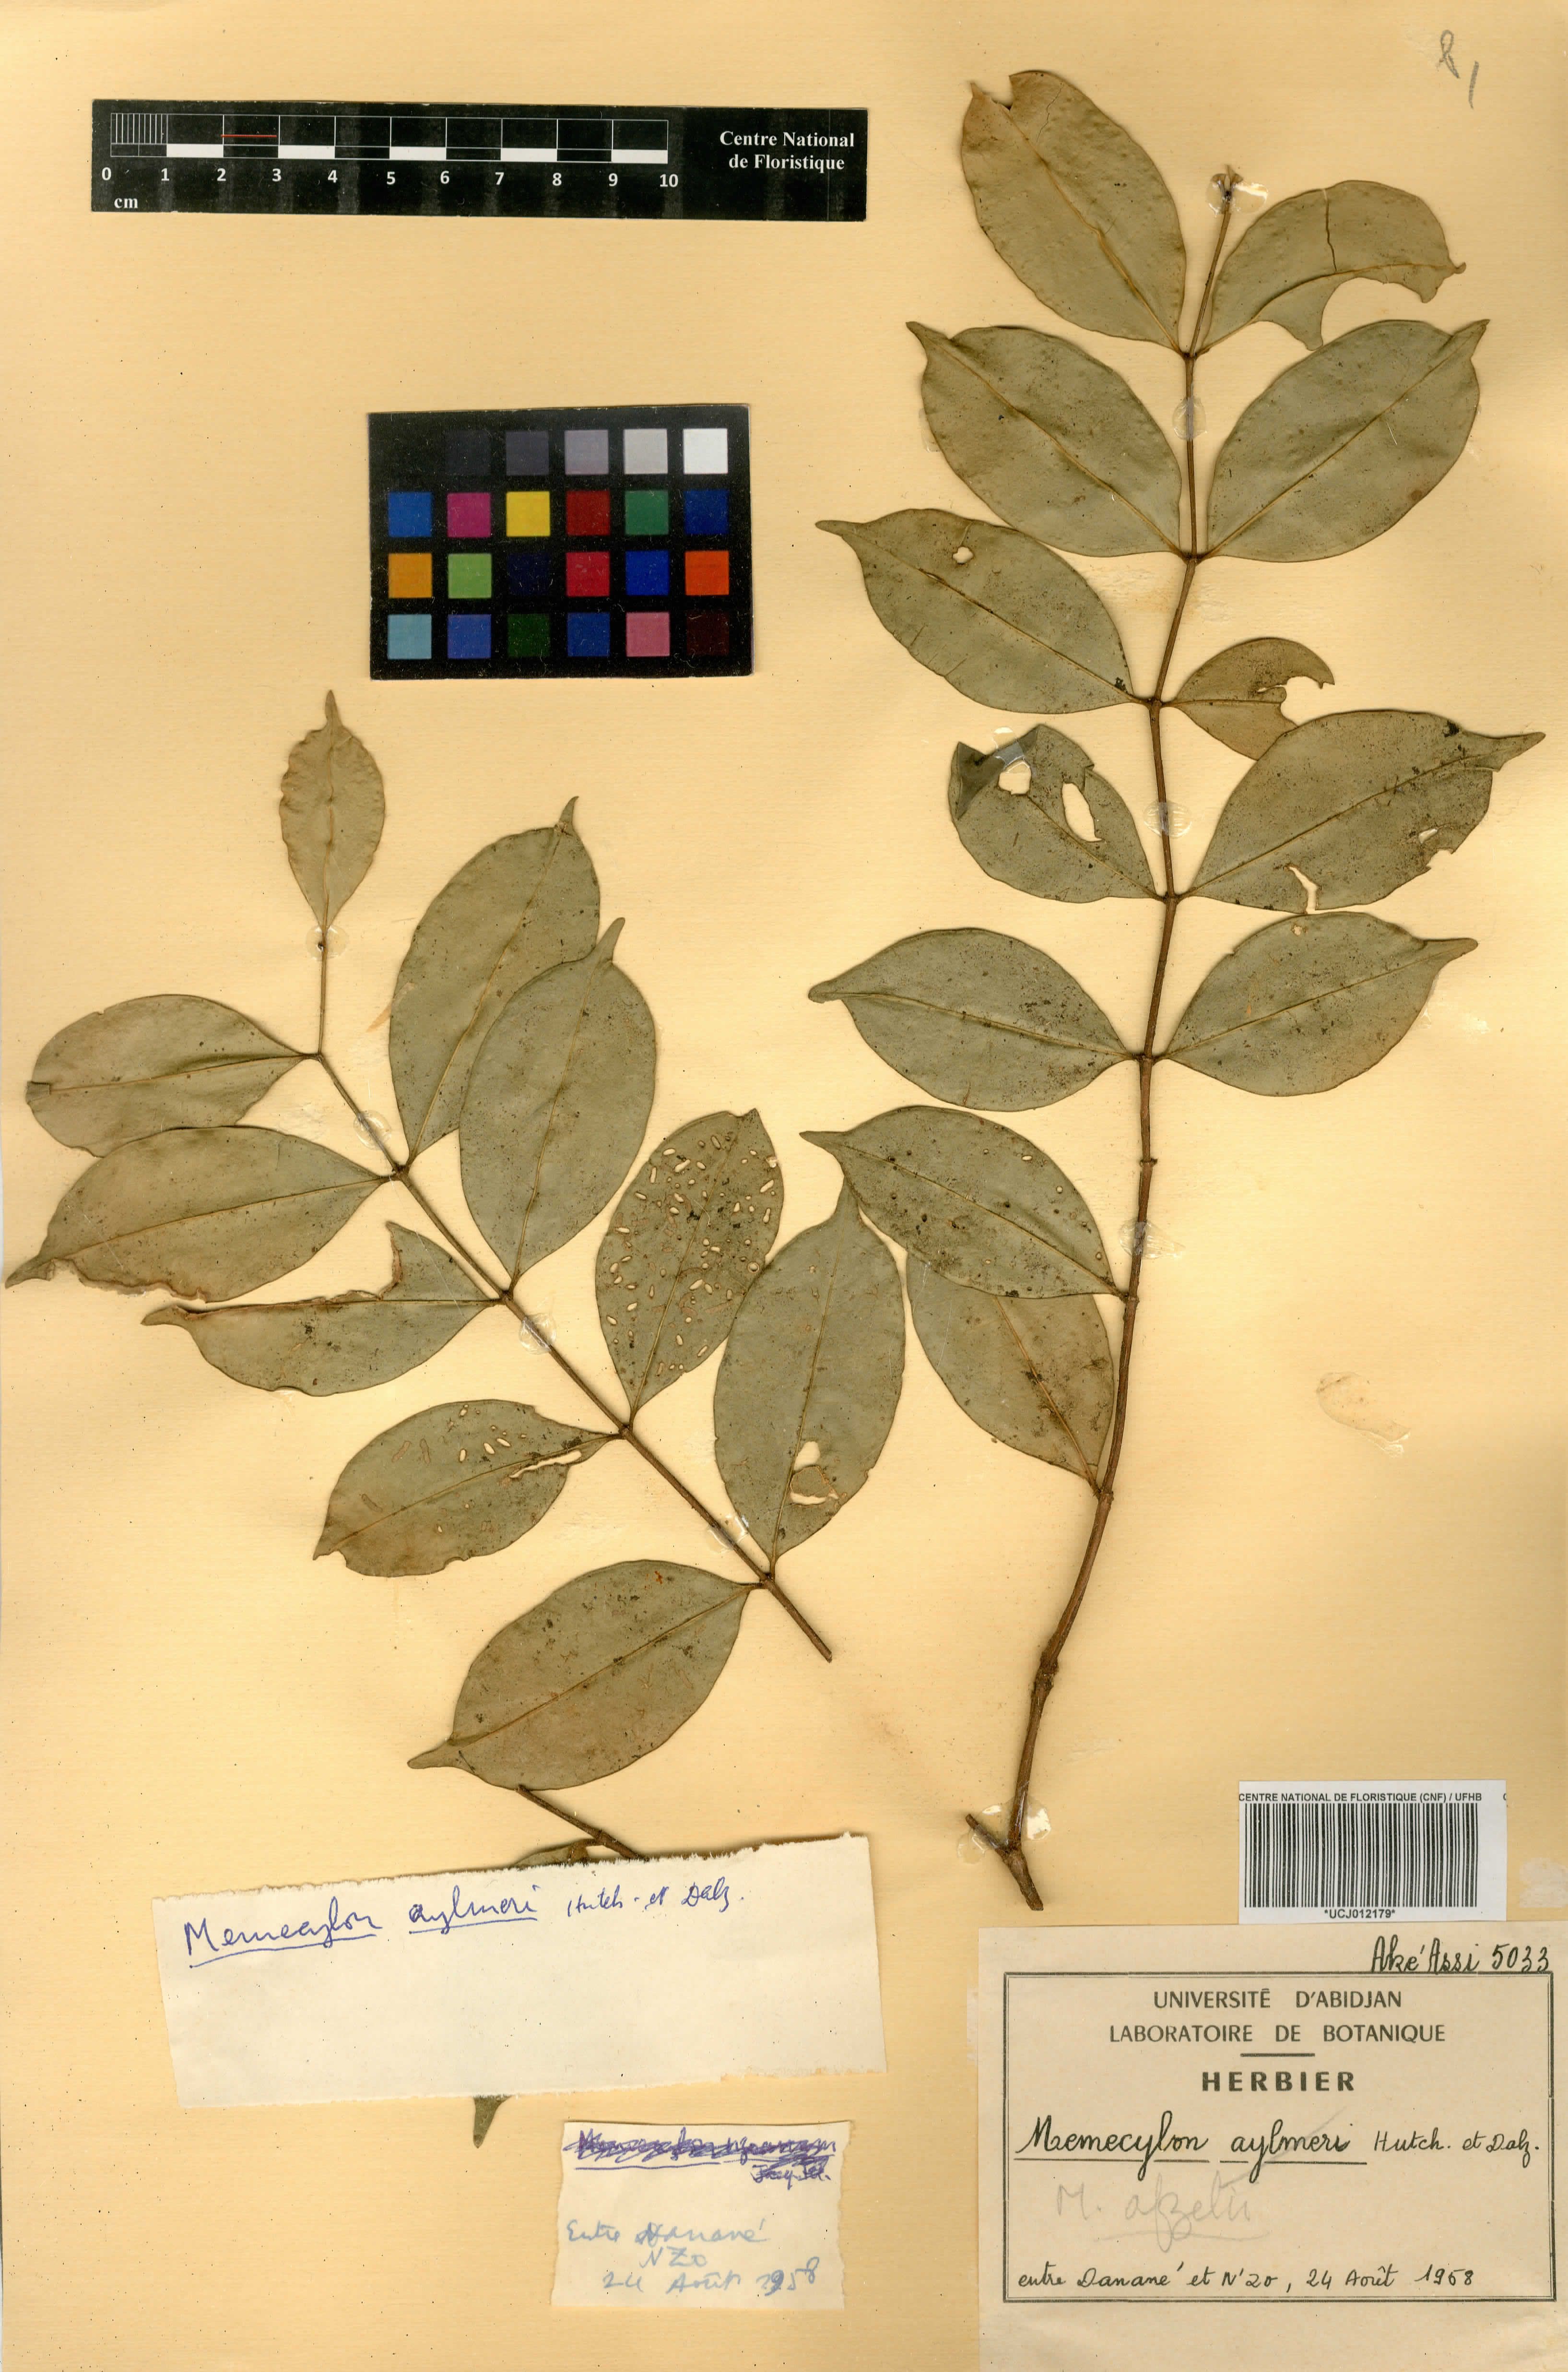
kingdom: Plantae
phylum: Tracheophyta
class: Magnoliopsida
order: Myrtales
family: Melastomataceae
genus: Memecylon
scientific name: Memecylon afzelii
